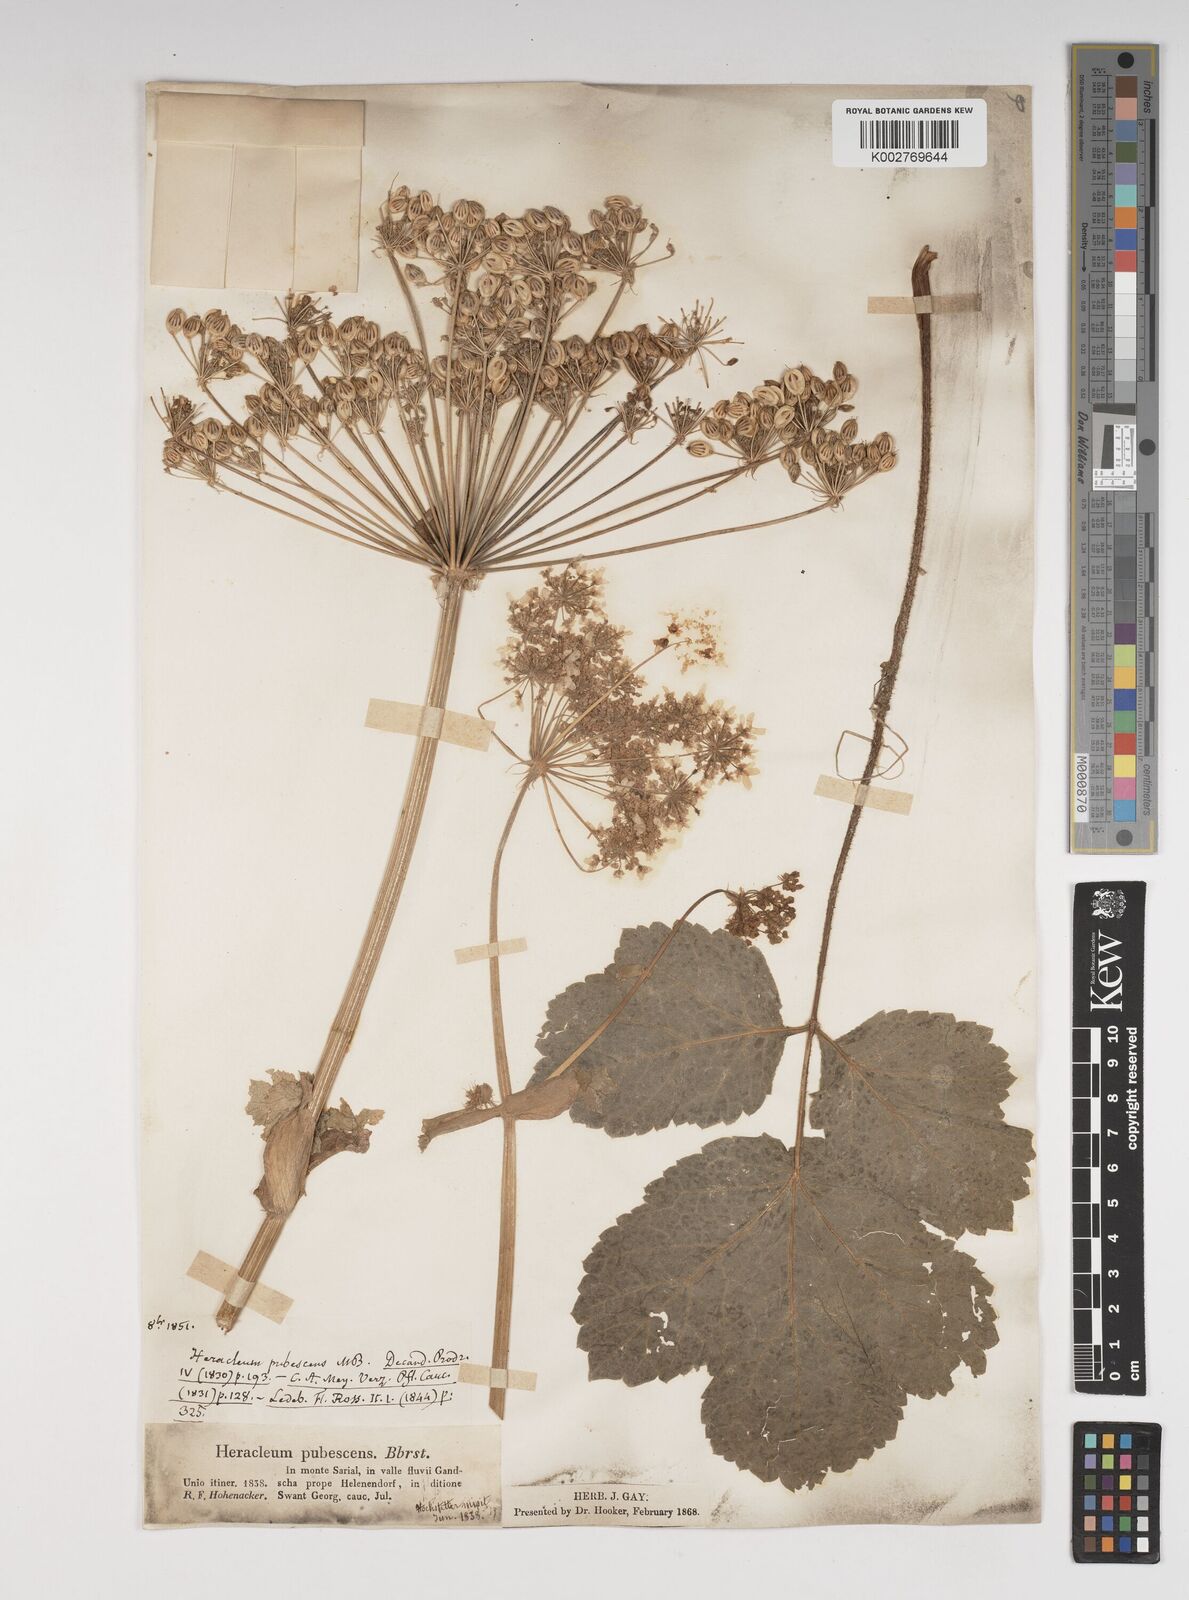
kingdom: Plantae
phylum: Tracheophyta
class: Magnoliopsida
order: Apiales
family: Apiaceae
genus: Heracleum
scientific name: Heracleum pubescens
